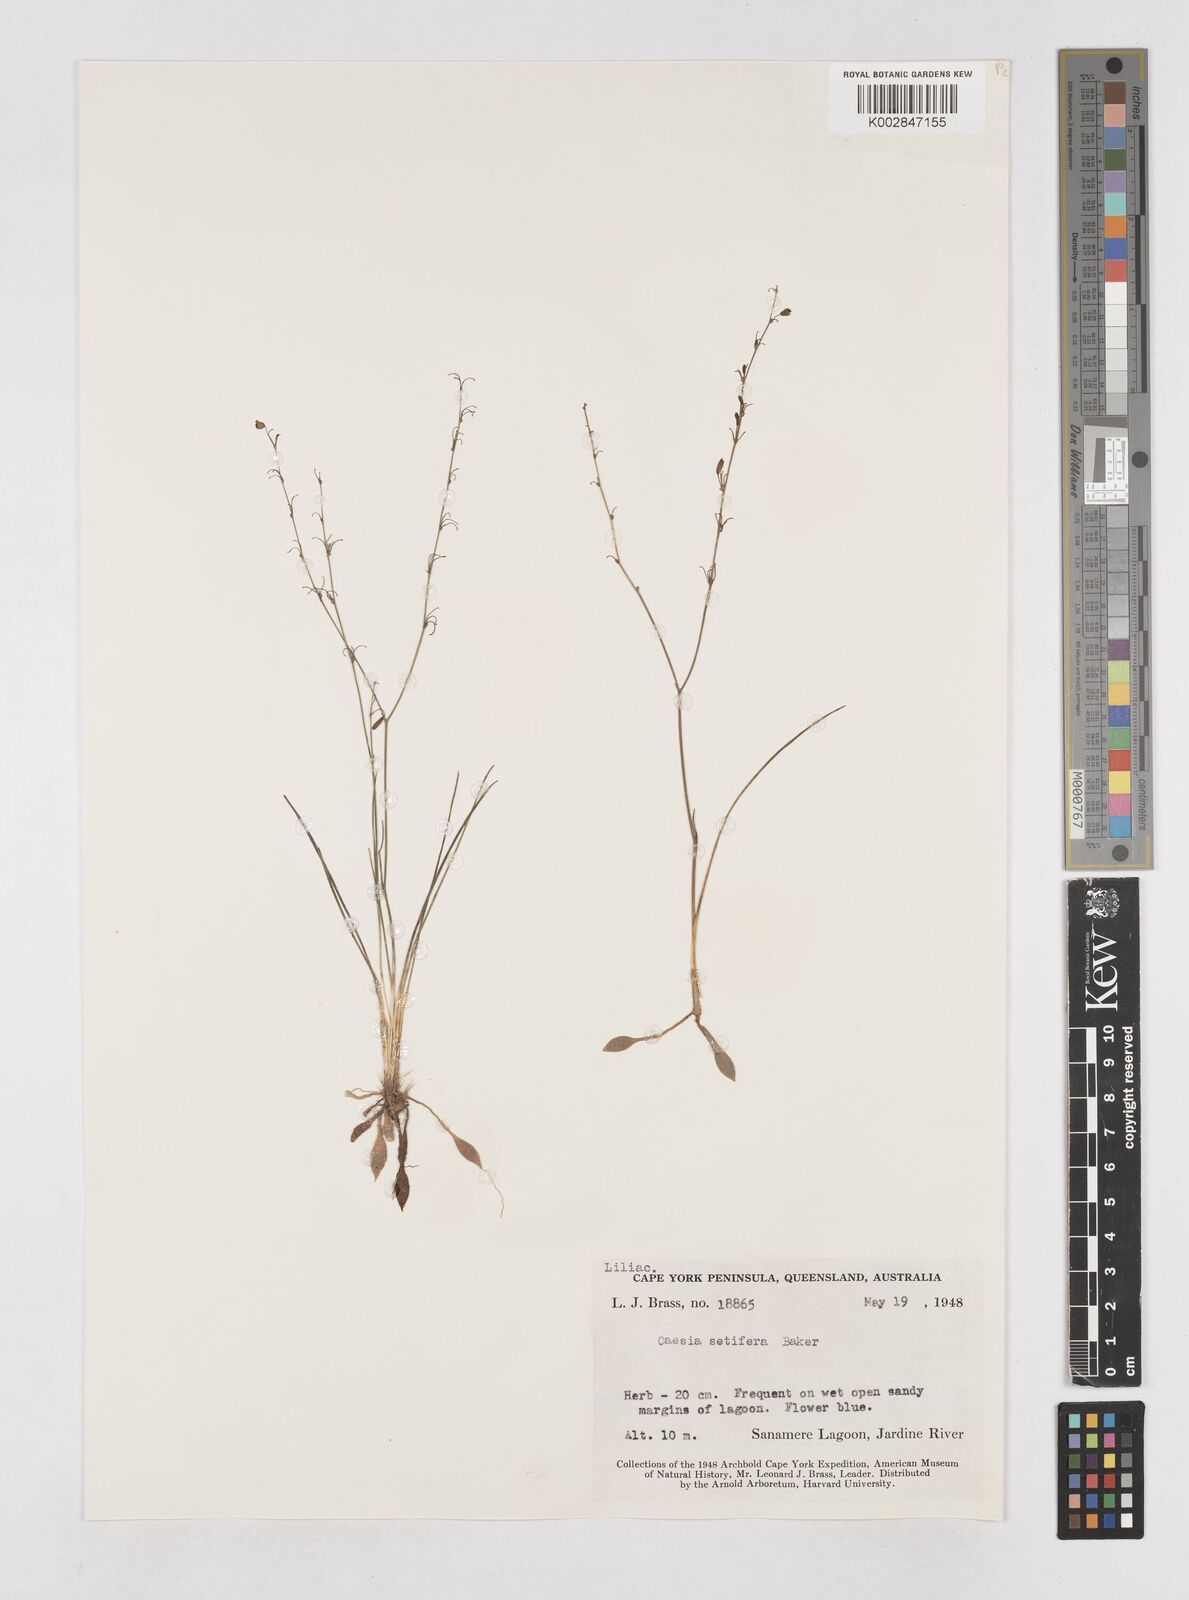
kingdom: Plantae
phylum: Tracheophyta
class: Liliopsida
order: Asparagales
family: Asphodelaceae
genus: Caesia
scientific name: Caesia setifera
